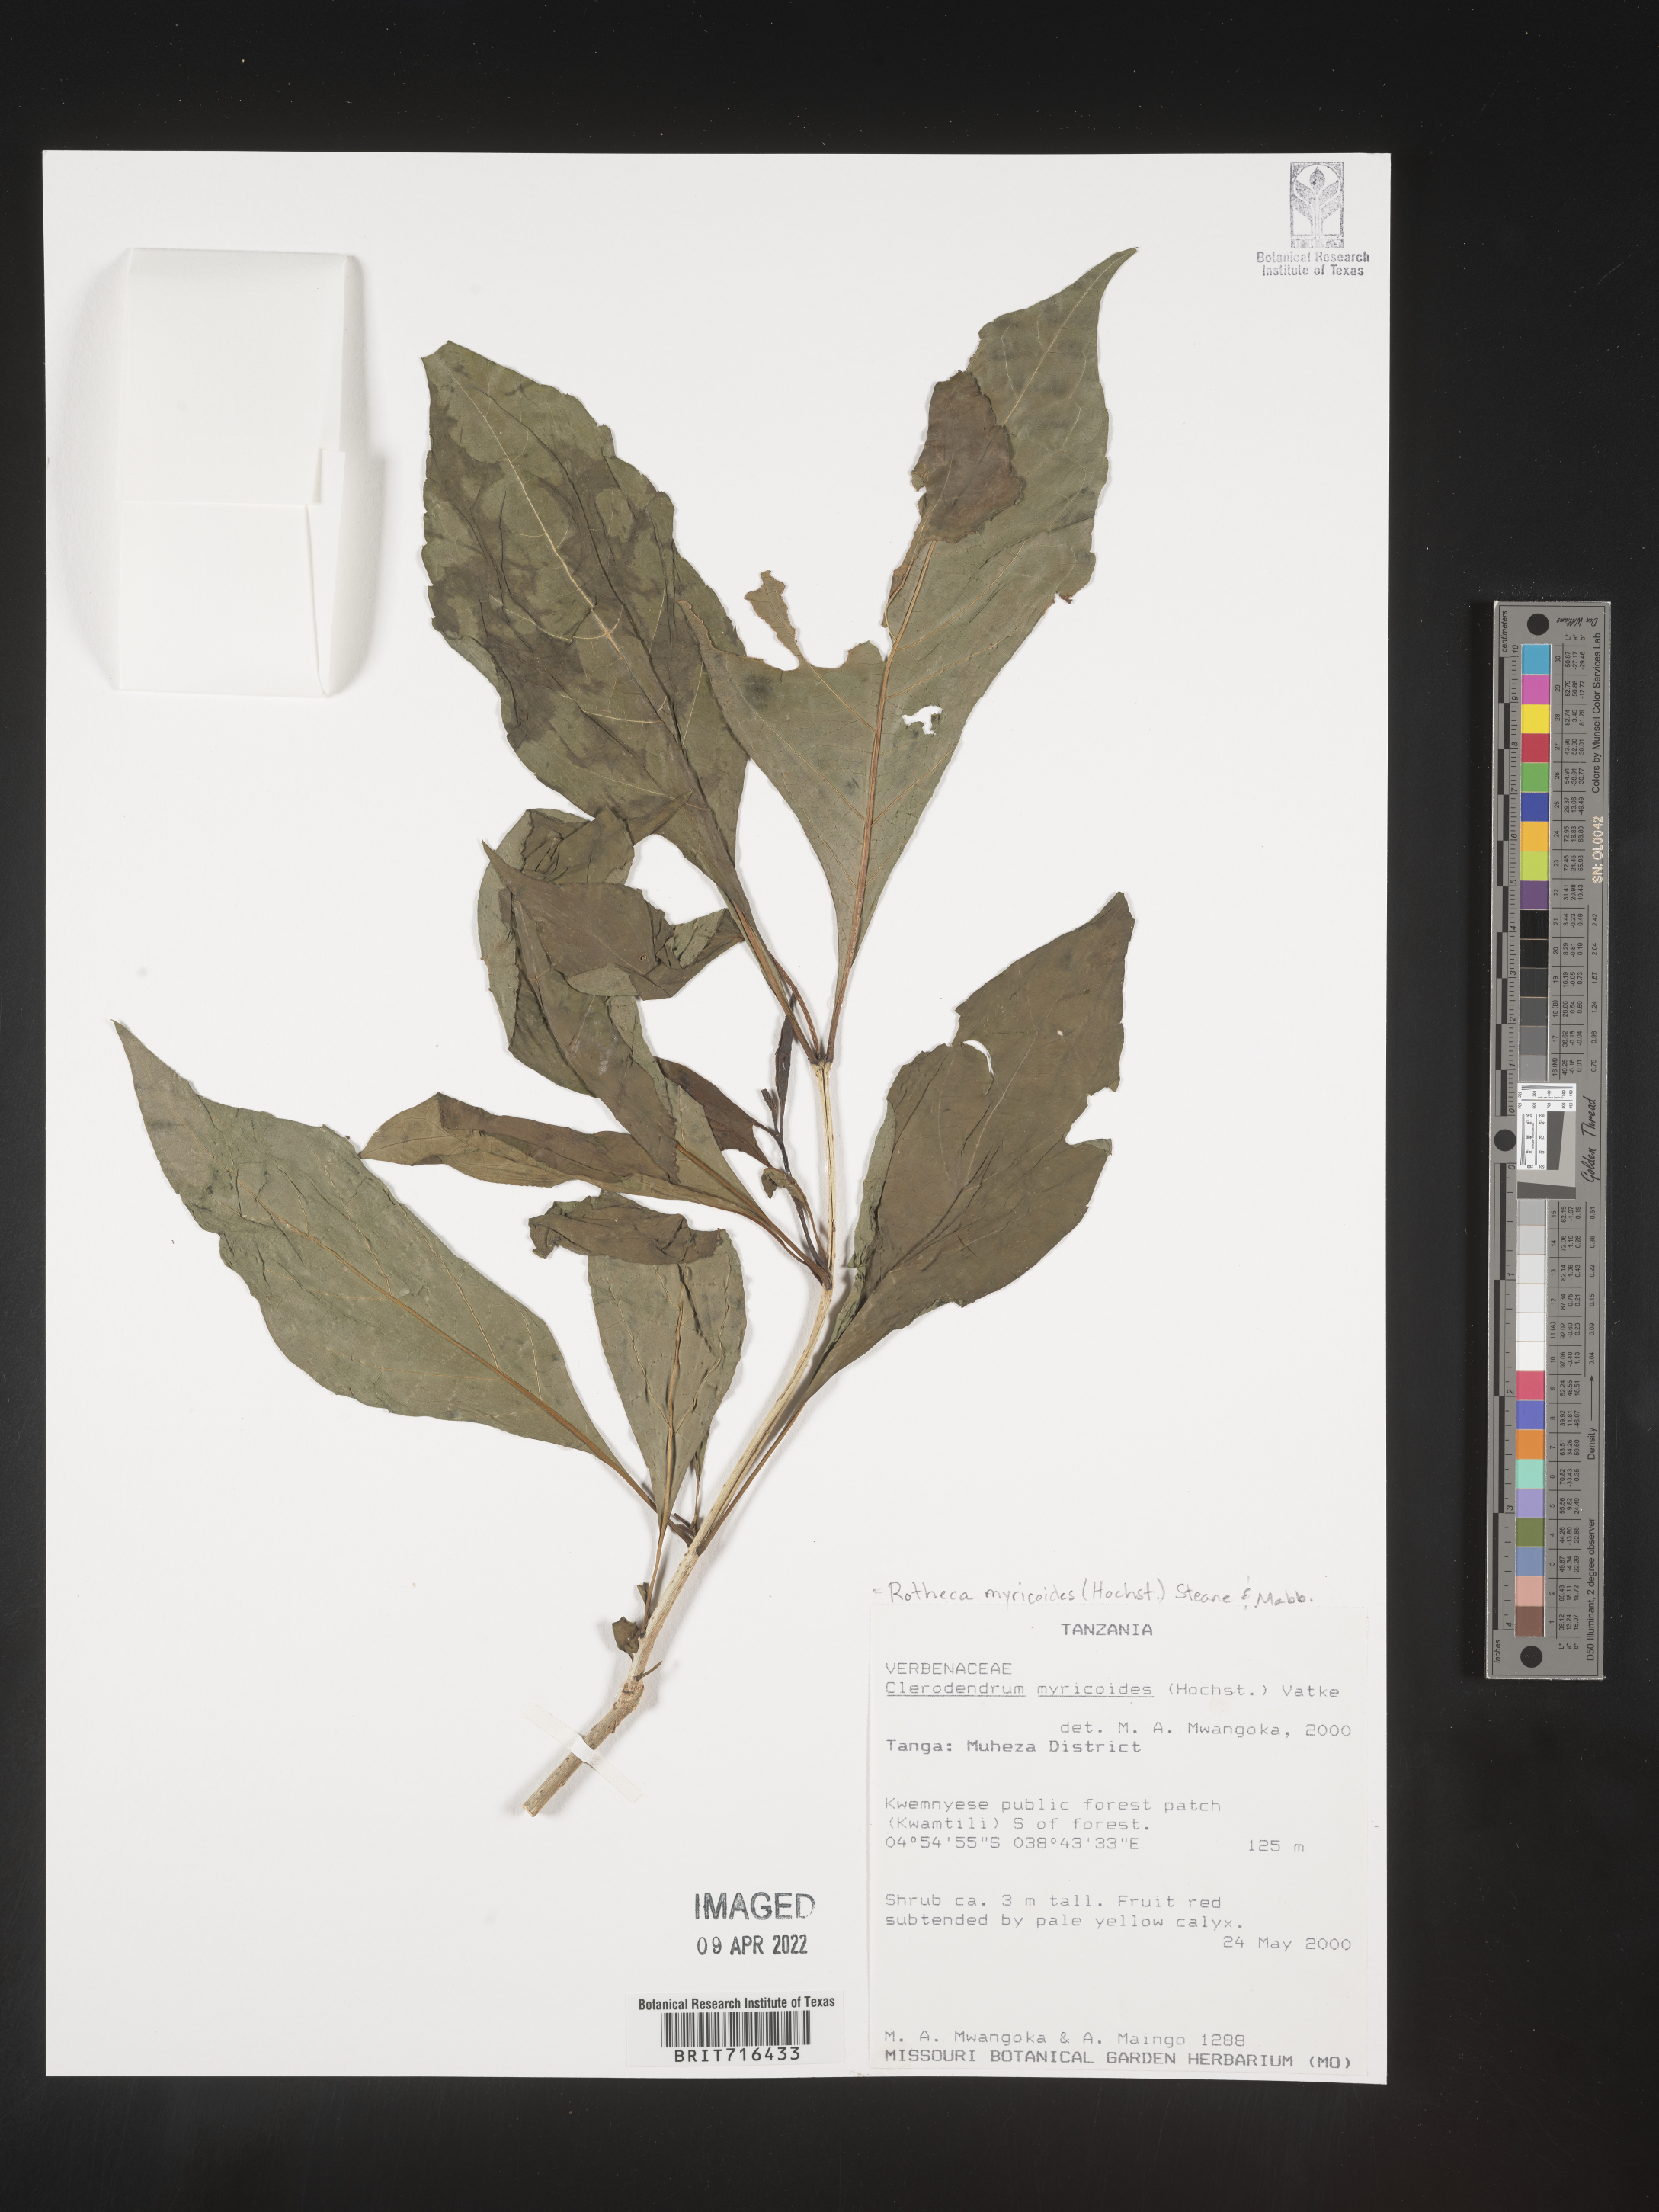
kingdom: Plantae
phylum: Tracheophyta
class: Magnoliopsida
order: Lamiales
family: Lamiaceae
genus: Clerodendrum
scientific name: Clerodendrum
